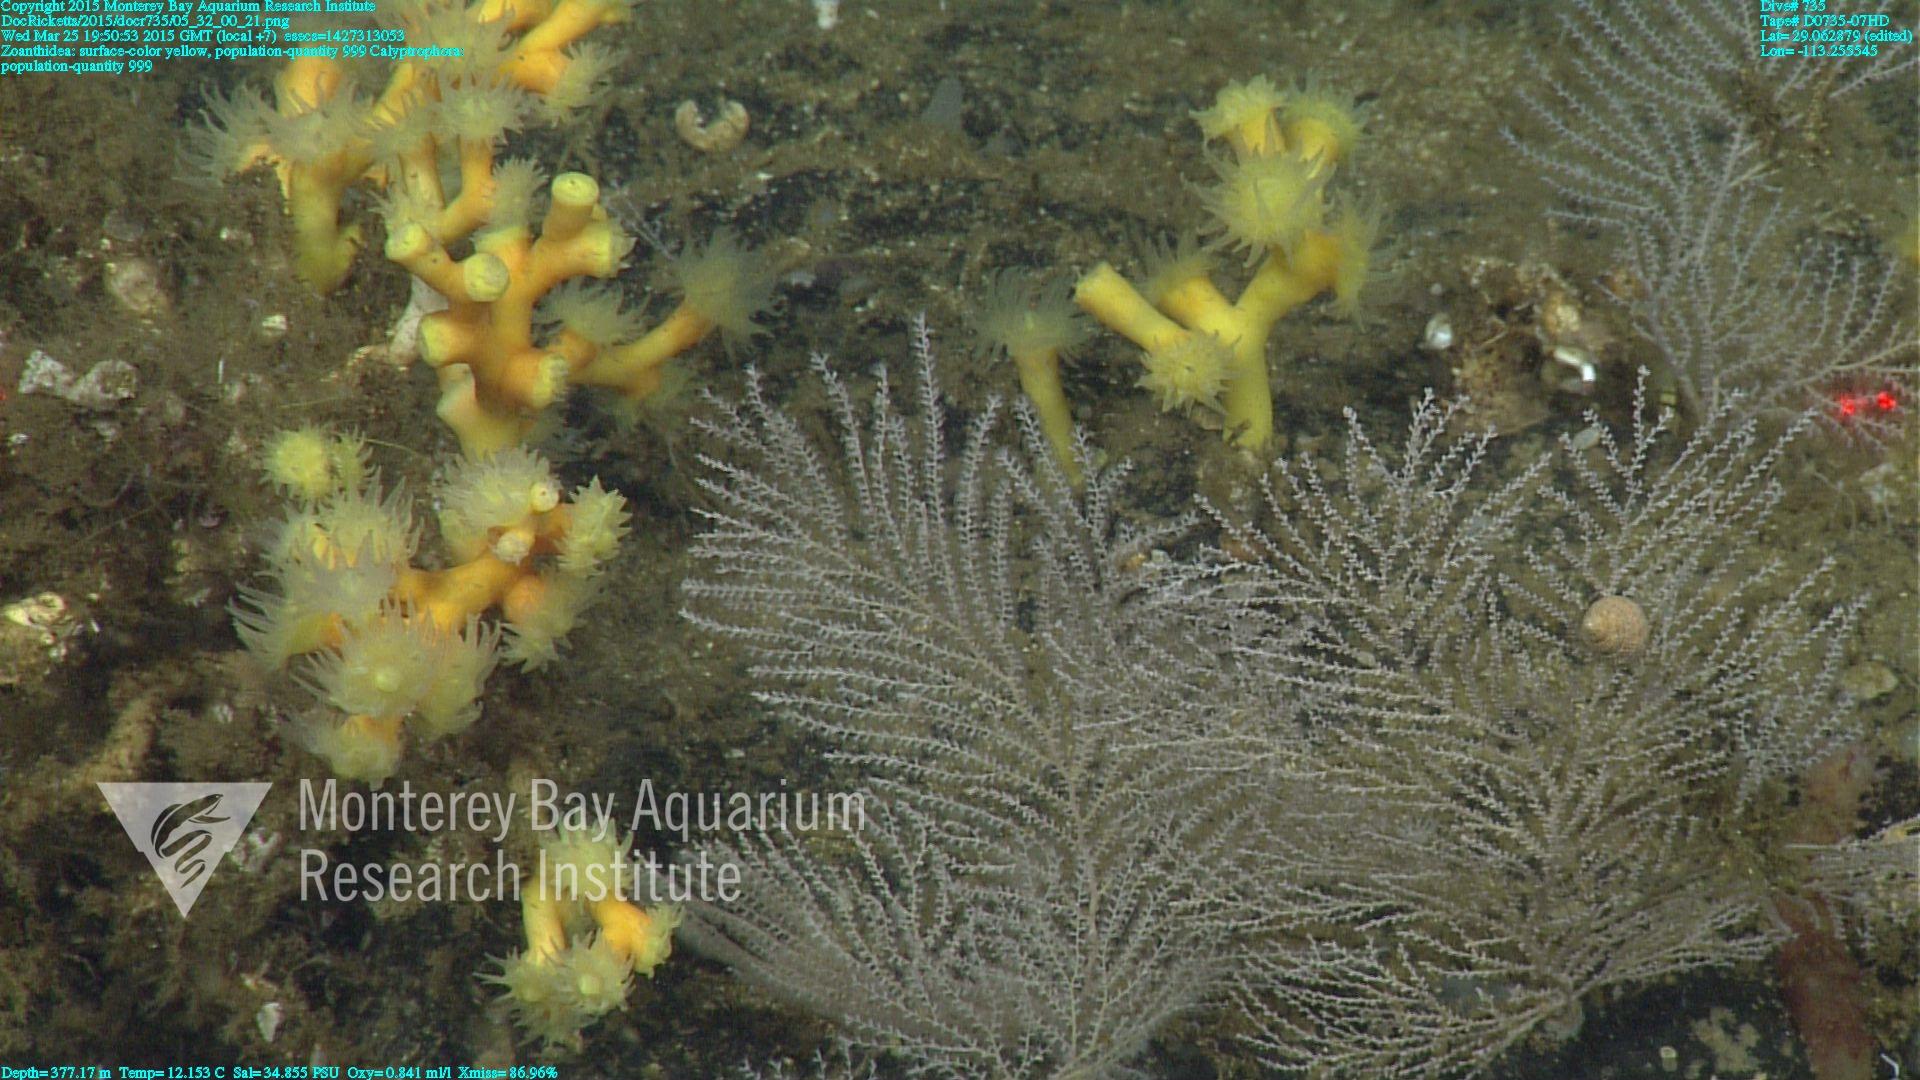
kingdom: Animalia
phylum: Cnidaria
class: Anthozoa
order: Scleralcyonacea
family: Primnoidae
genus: Calyptrophora
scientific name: Calyptrophora
